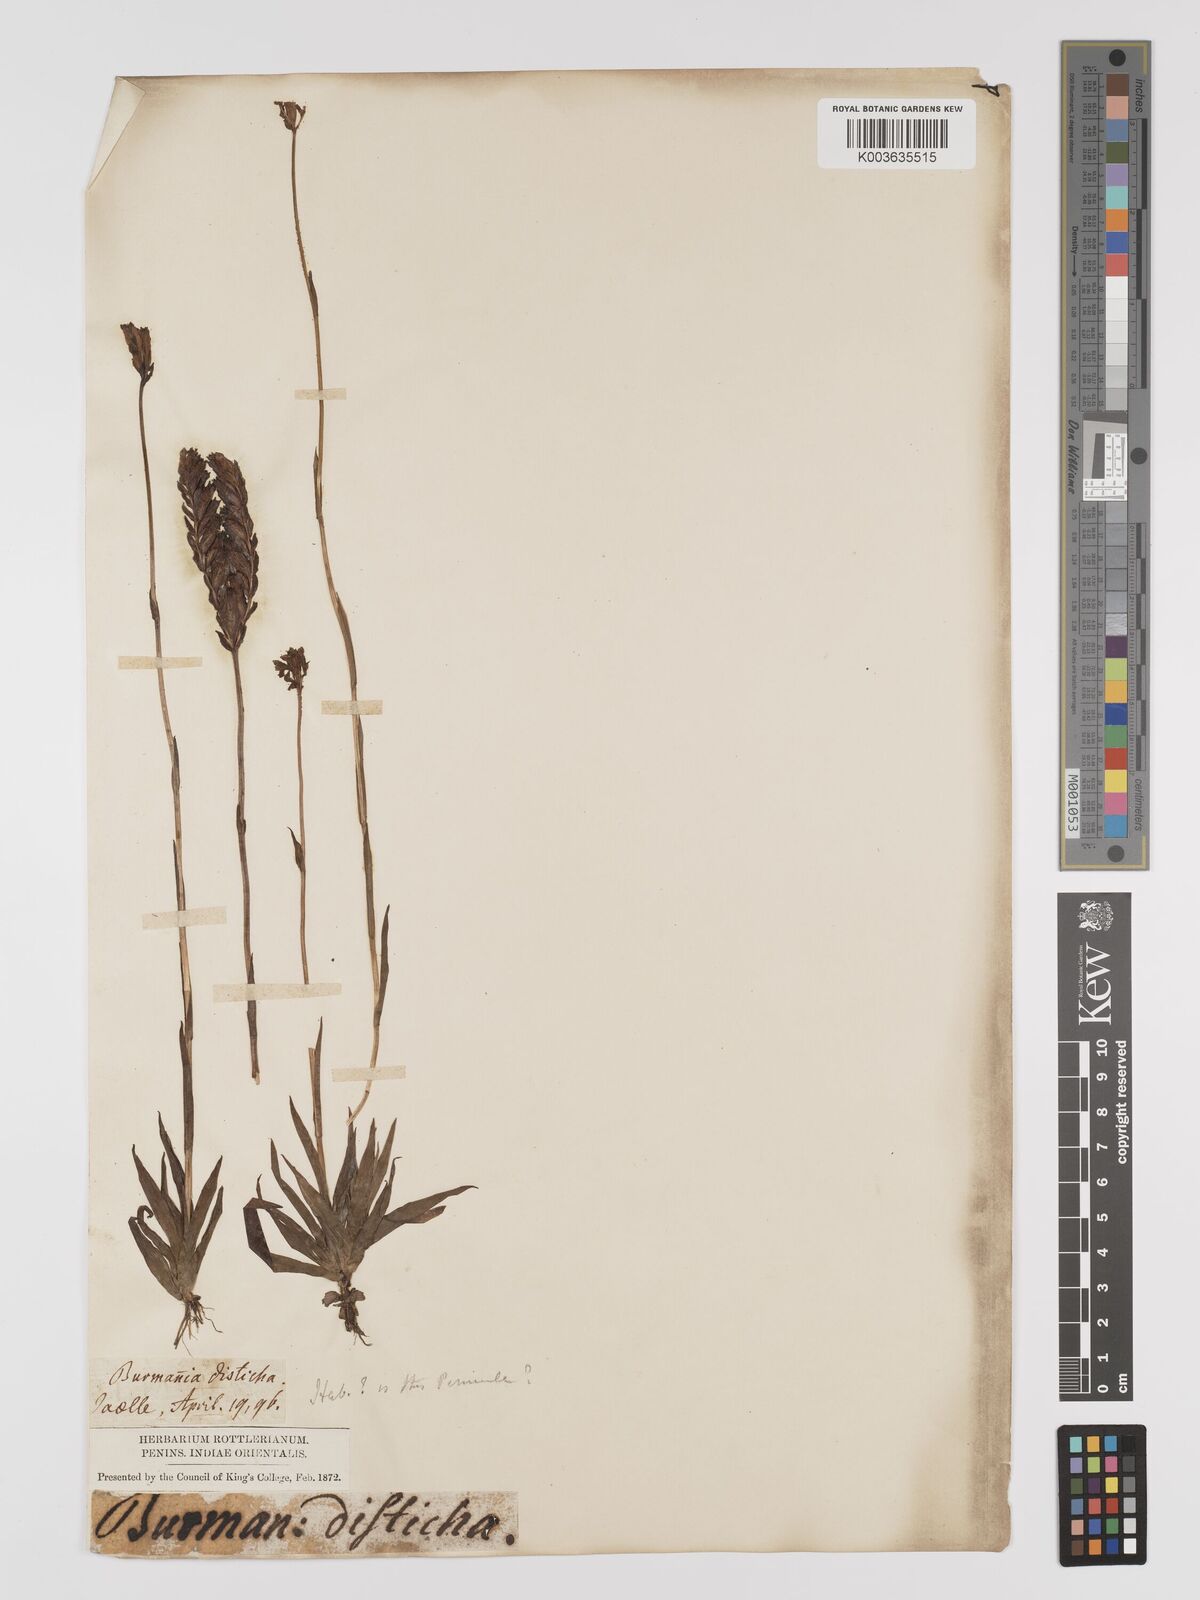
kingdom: Plantae
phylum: Tracheophyta
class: Liliopsida
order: Dioscoreales
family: Burmanniaceae
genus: Burmannia
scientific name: Burmannia disticha
